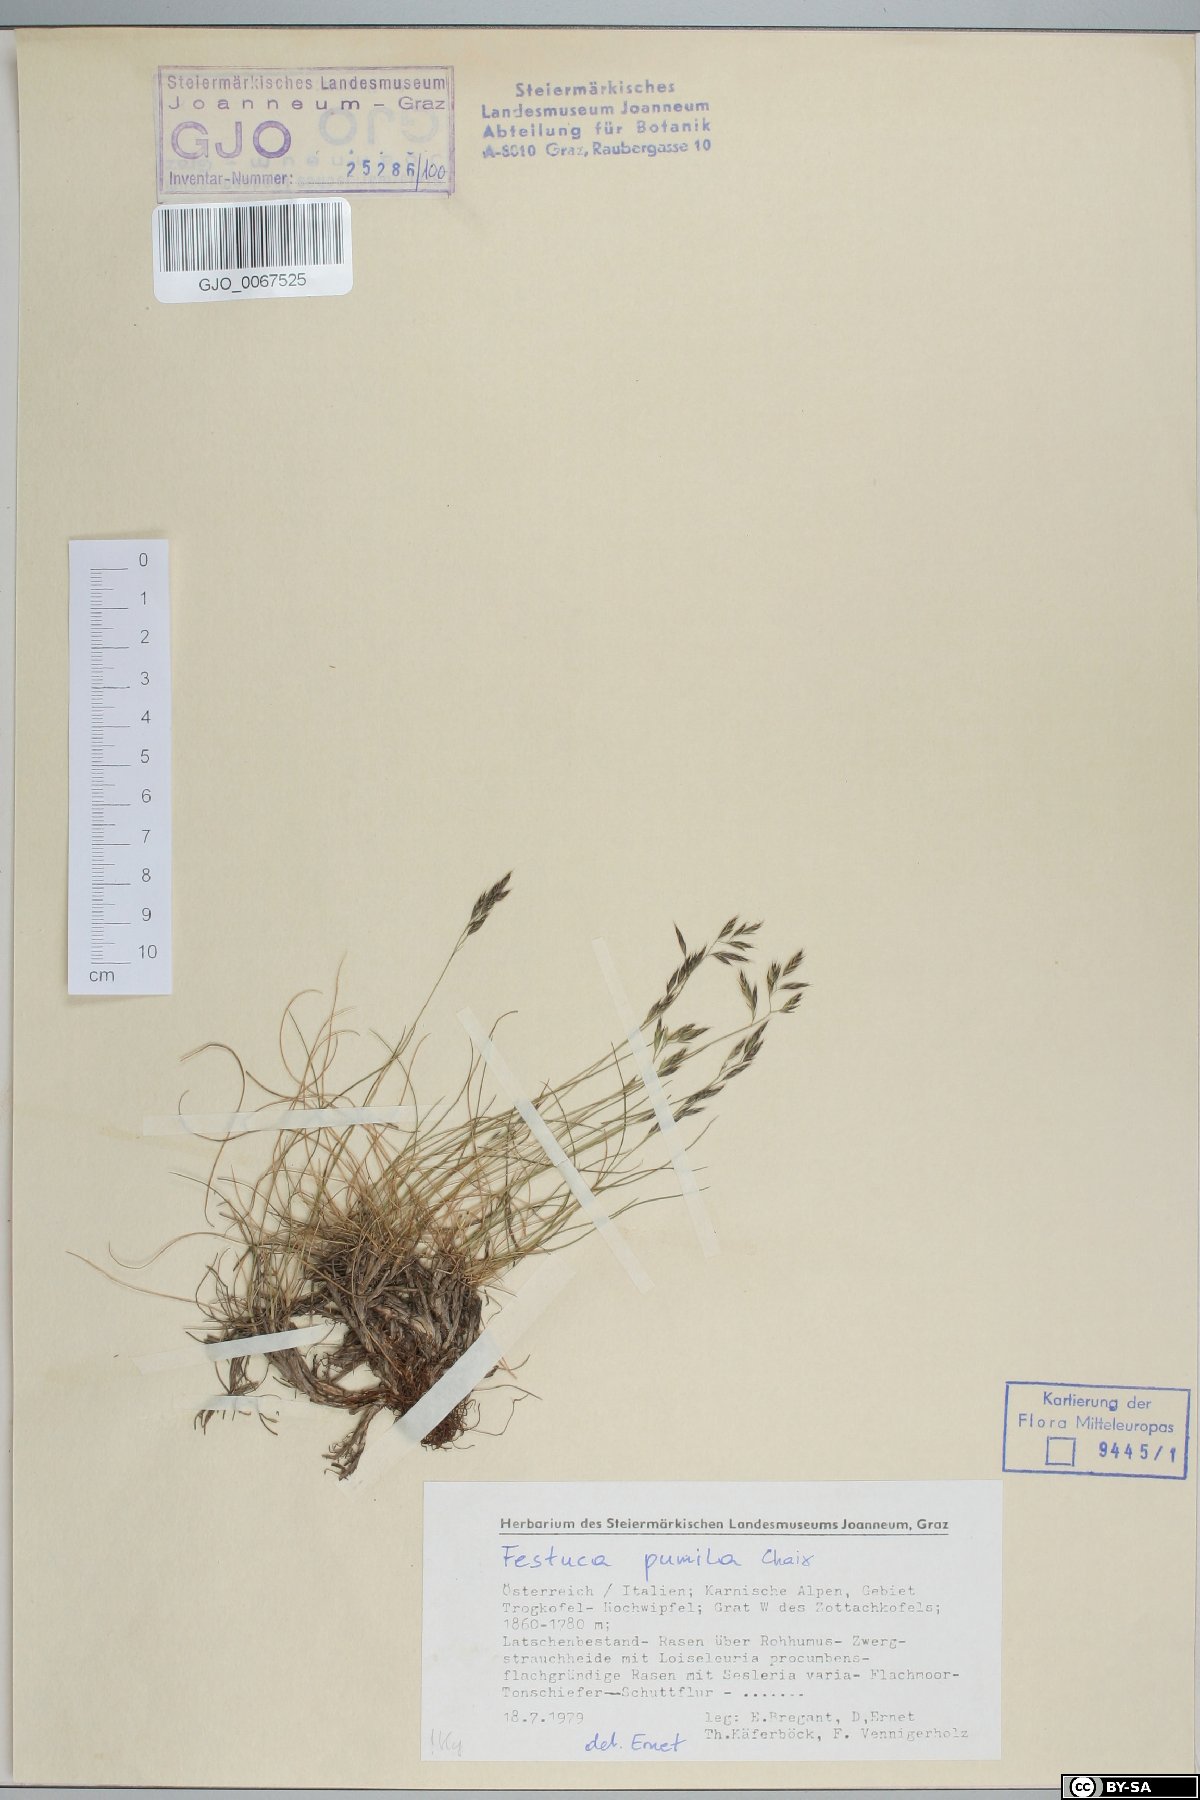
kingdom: Plantae
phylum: Tracheophyta
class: Liliopsida
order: Poales
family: Poaceae
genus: Festuca
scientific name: Festuca quadriflora
